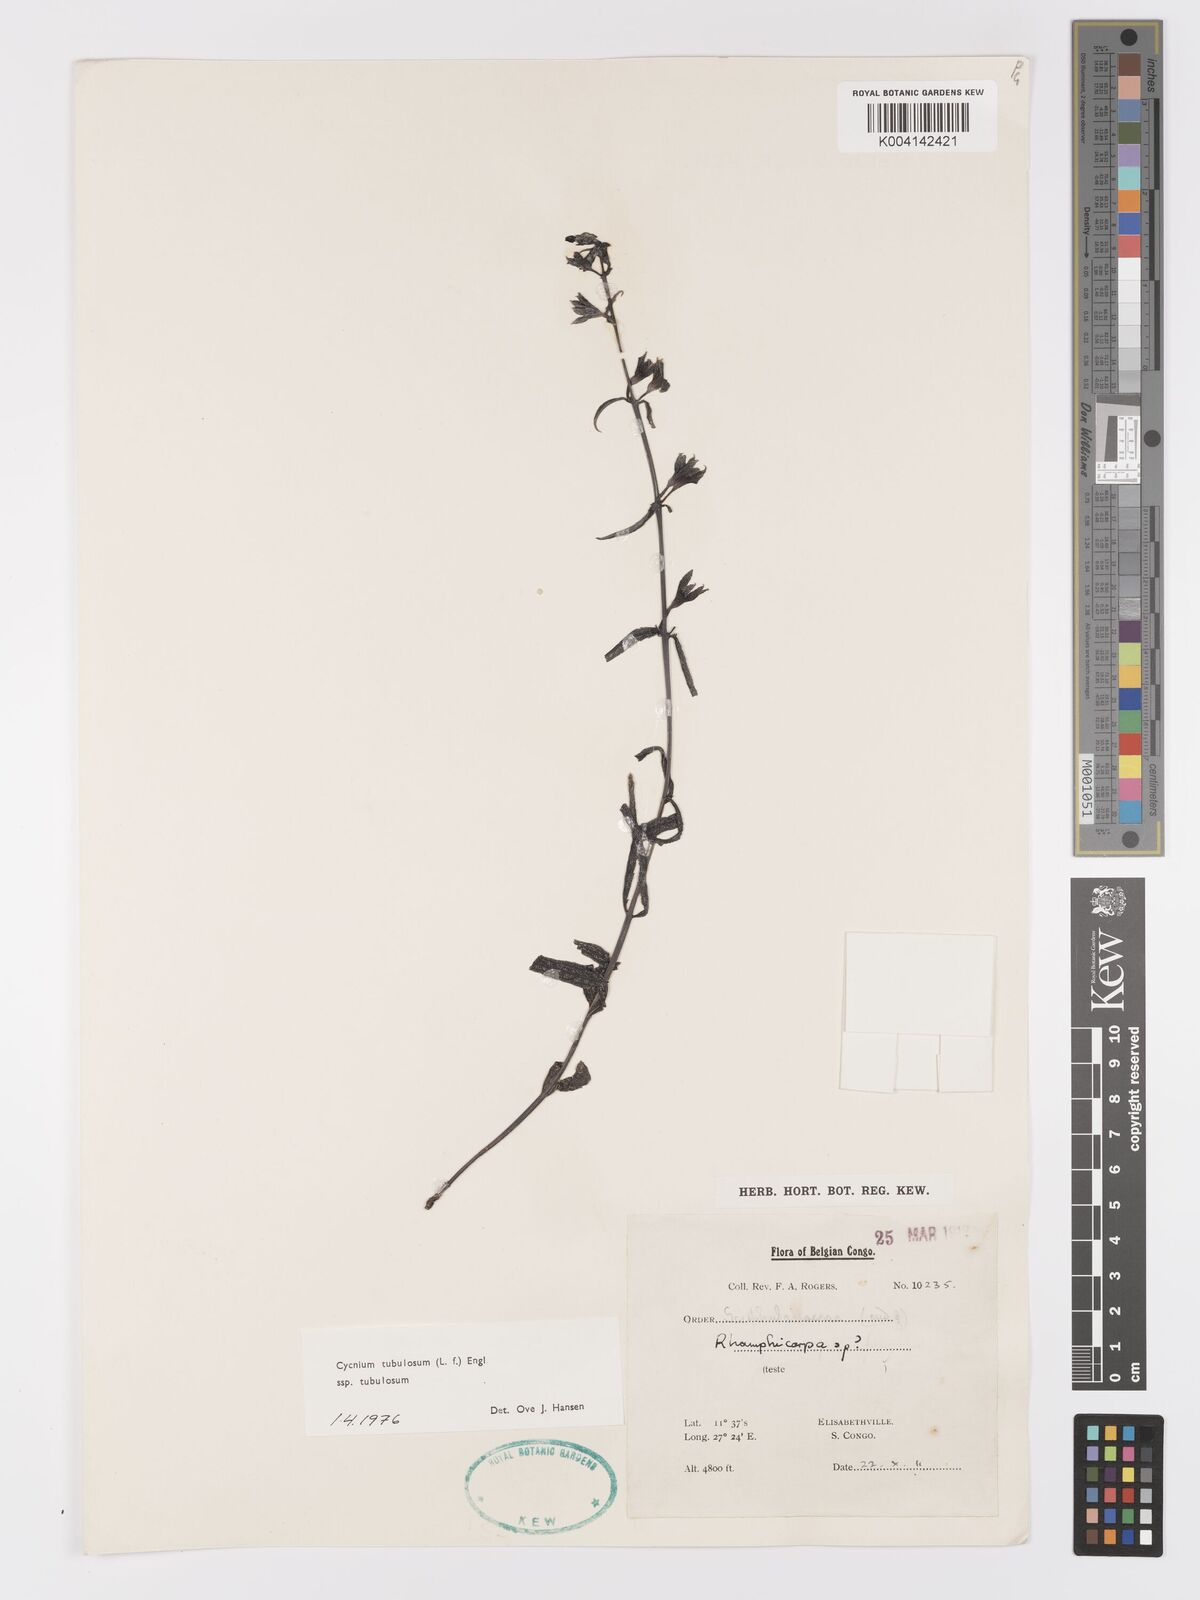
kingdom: Plantae
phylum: Tracheophyta
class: Magnoliopsida
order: Lamiales
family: Orobanchaceae
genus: Cycnium
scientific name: Cycnium tubulosum
